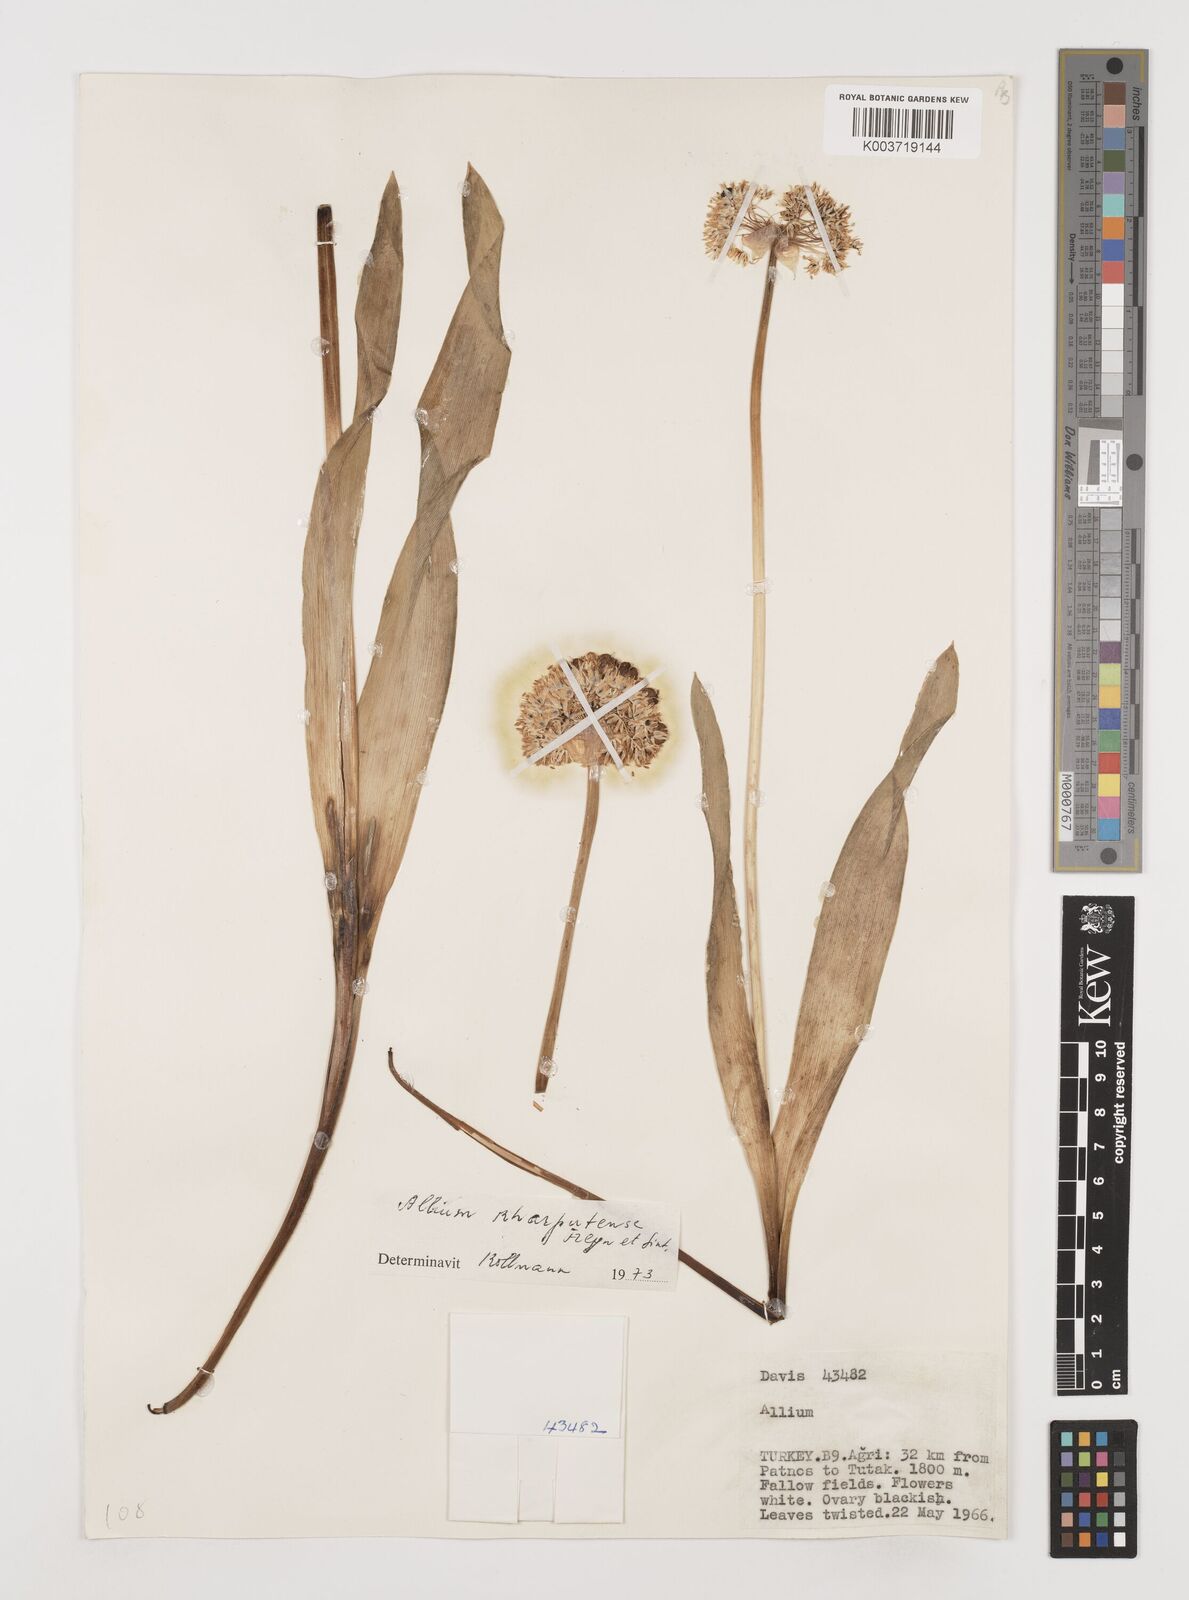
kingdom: Plantae
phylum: Tracheophyta
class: Liliopsida
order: Asparagales
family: Amaryllidaceae
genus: Allium
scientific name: Allium kharputense
